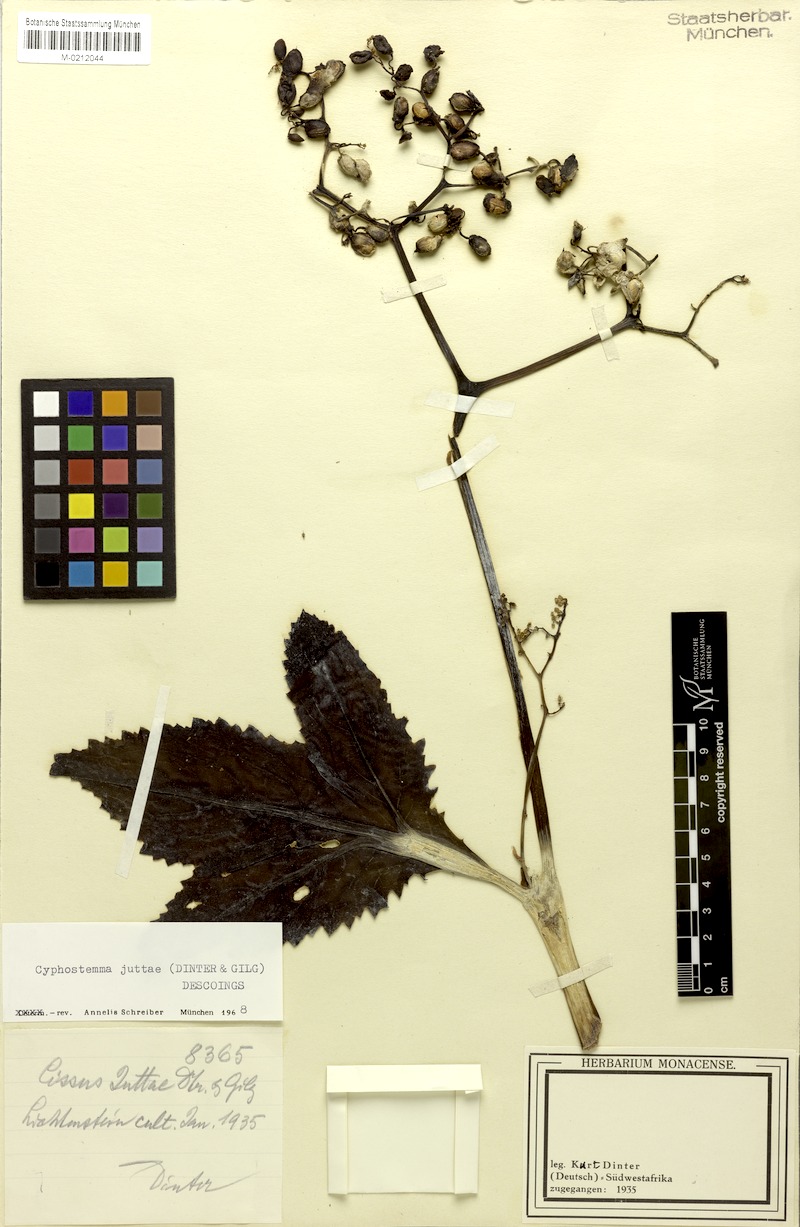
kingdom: Plantae
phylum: Tracheophyta
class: Magnoliopsida
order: Vitales
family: Vitaceae
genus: Cyphostemma
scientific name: Cyphostemma juttae
